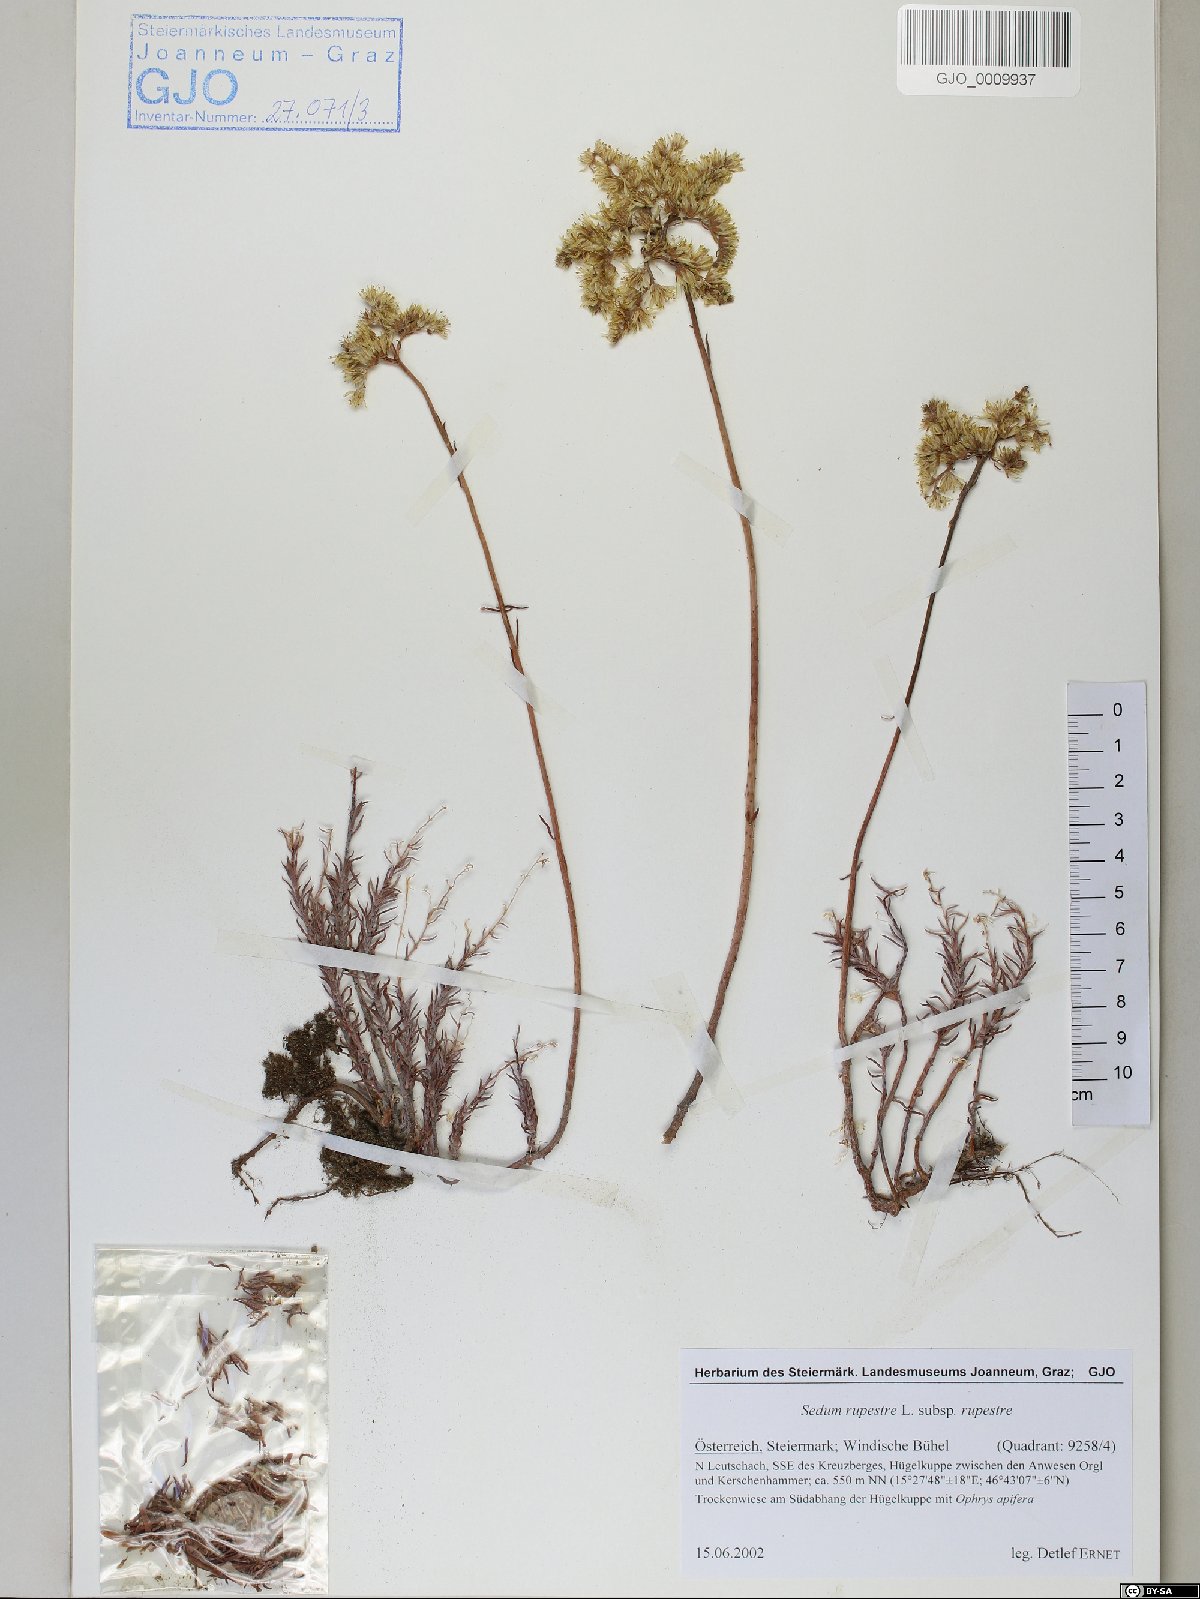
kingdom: Plantae
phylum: Tracheophyta
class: Magnoliopsida
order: Saxifragales
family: Crassulaceae
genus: Petrosedum
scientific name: Petrosedum rupestre
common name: Jenny's stonecrop
